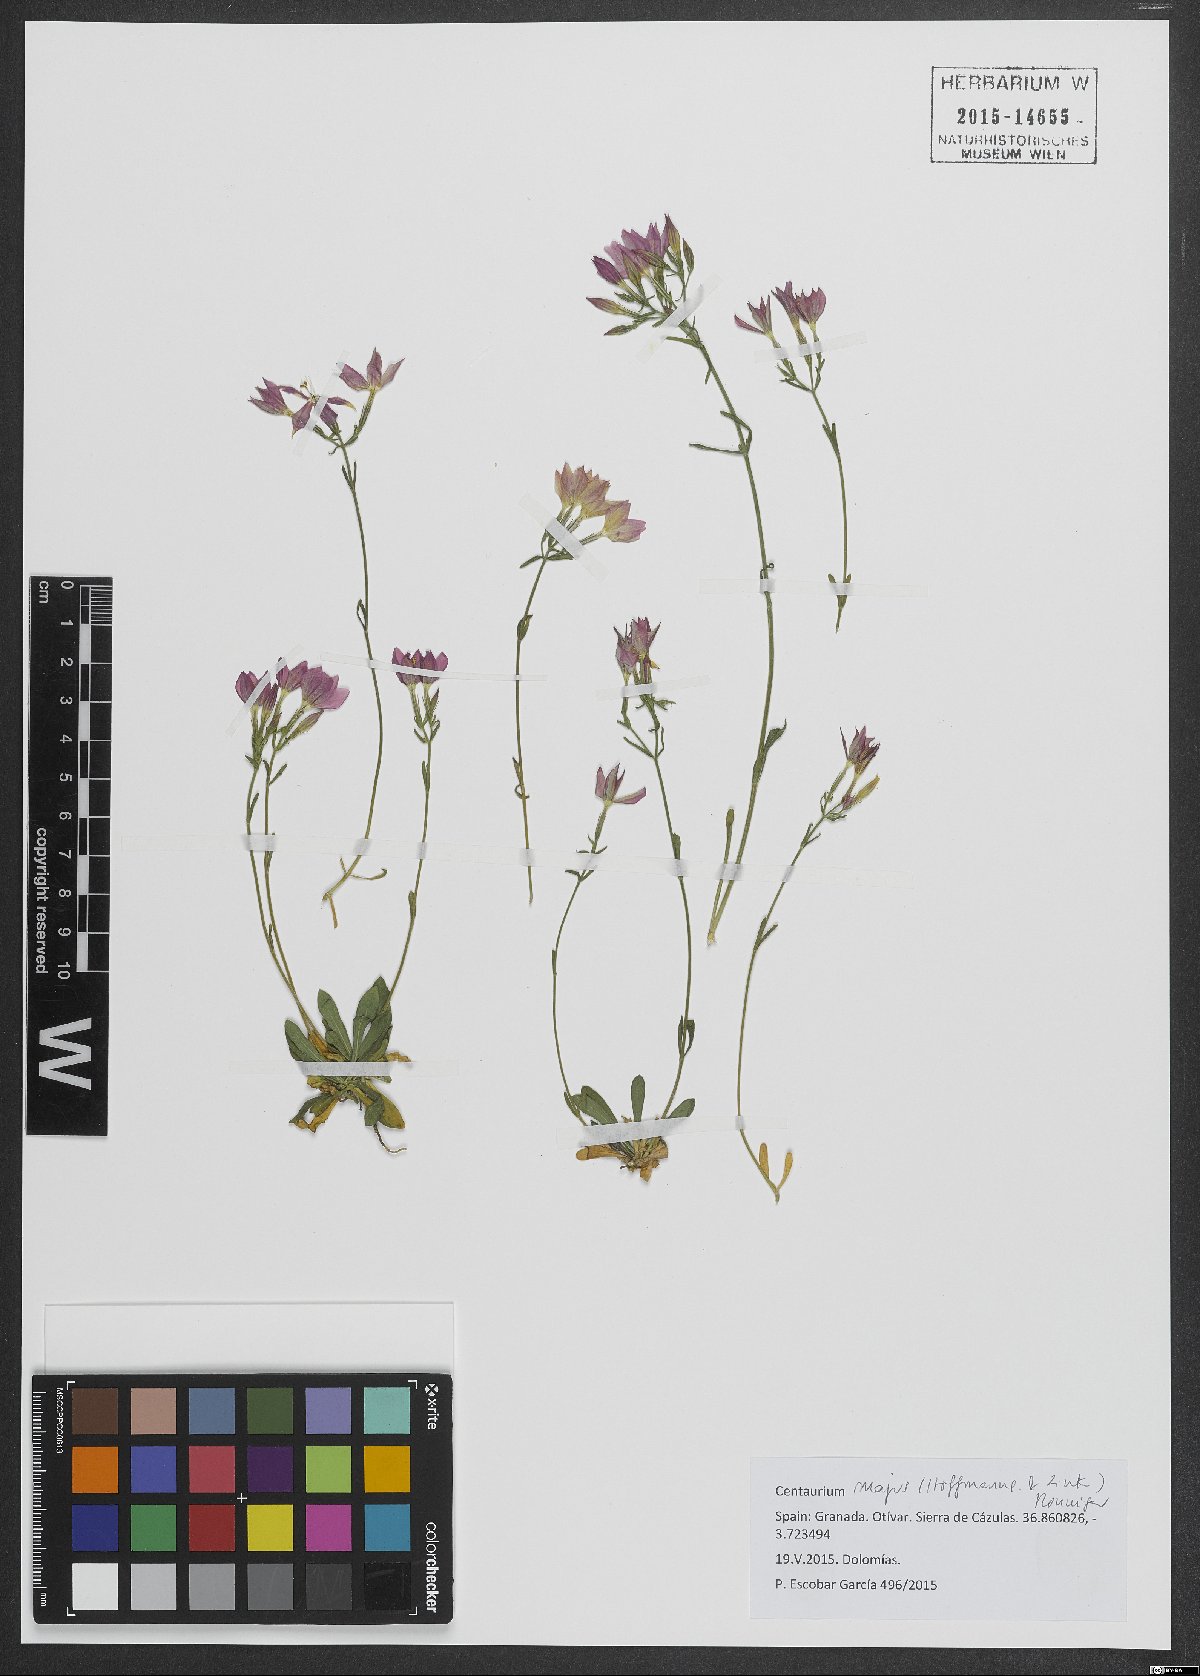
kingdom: Plantae
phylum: Tracheophyta
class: Magnoliopsida
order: Gentianales
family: Gentianaceae
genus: Centaurium
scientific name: Centaurium grandiflorum
